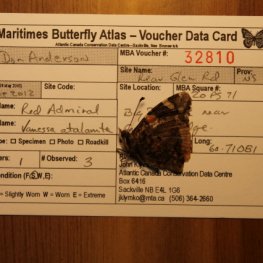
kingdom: Animalia
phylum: Arthropoda
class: Insecta
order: Lepidoptera
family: Nymphalidae
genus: Vanessa
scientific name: Vanessa atalanta
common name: Red Admiral
